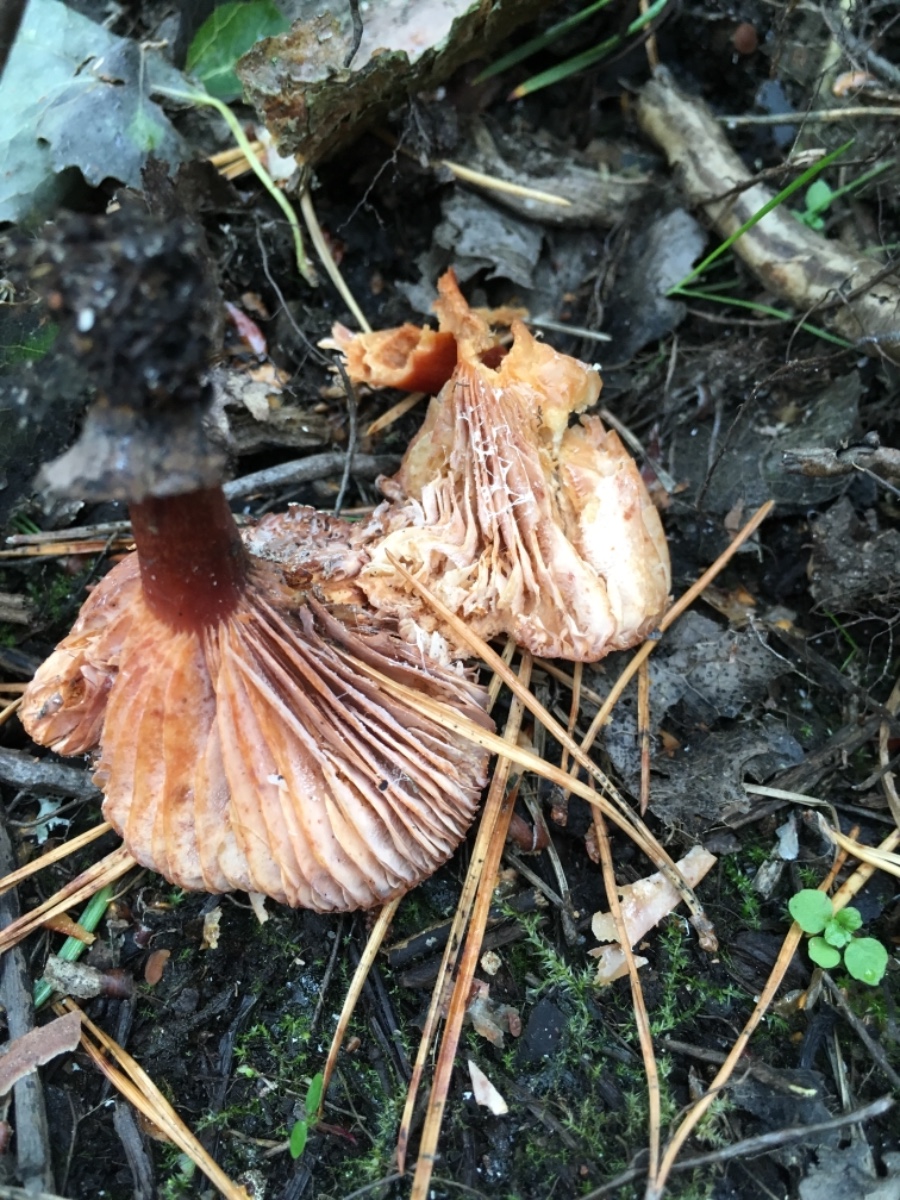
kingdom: Fungi
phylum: Basidiomycota
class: Agaricomycetes
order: Russulales
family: Russulaceae
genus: Lactarius
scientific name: Lactarius lacunarum
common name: sump-mælkehat
